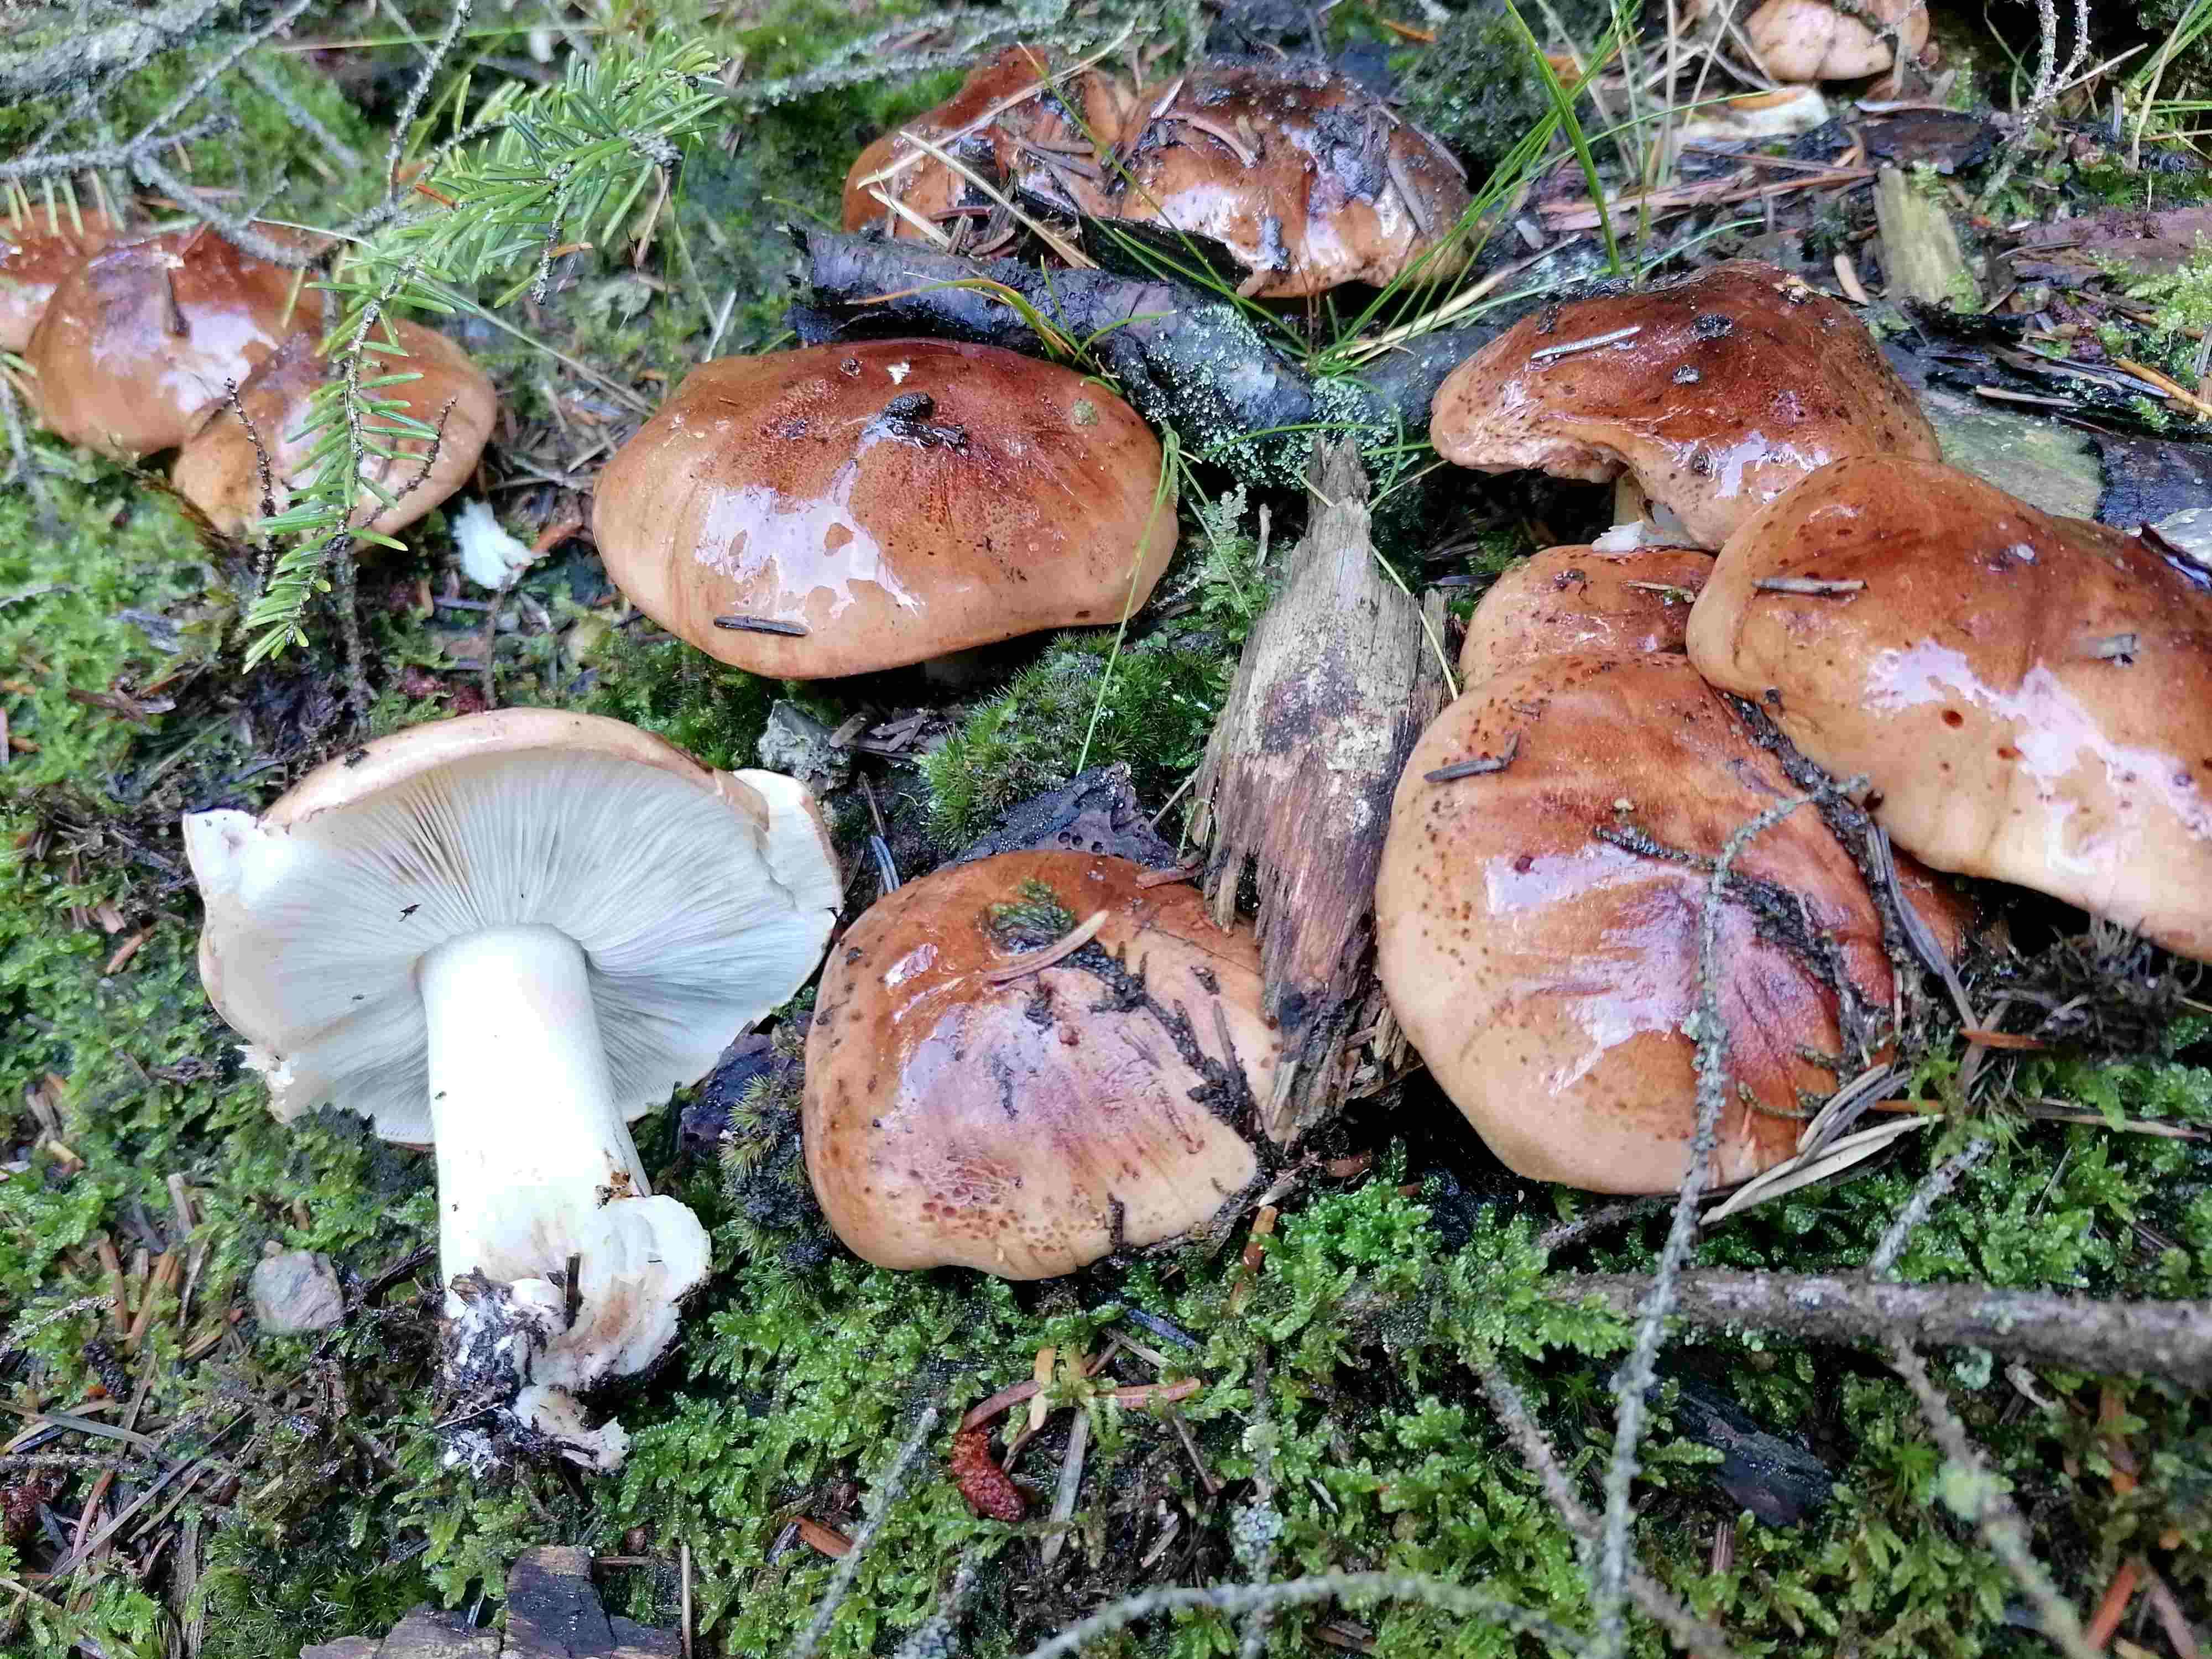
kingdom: Fungi
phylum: Basidiomycota
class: Agaricomycetes
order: Agaricales
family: Tricholomataceae
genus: Tricholoma
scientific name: Tricholoma pessundatum
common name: dråbeplettet ridderhat
